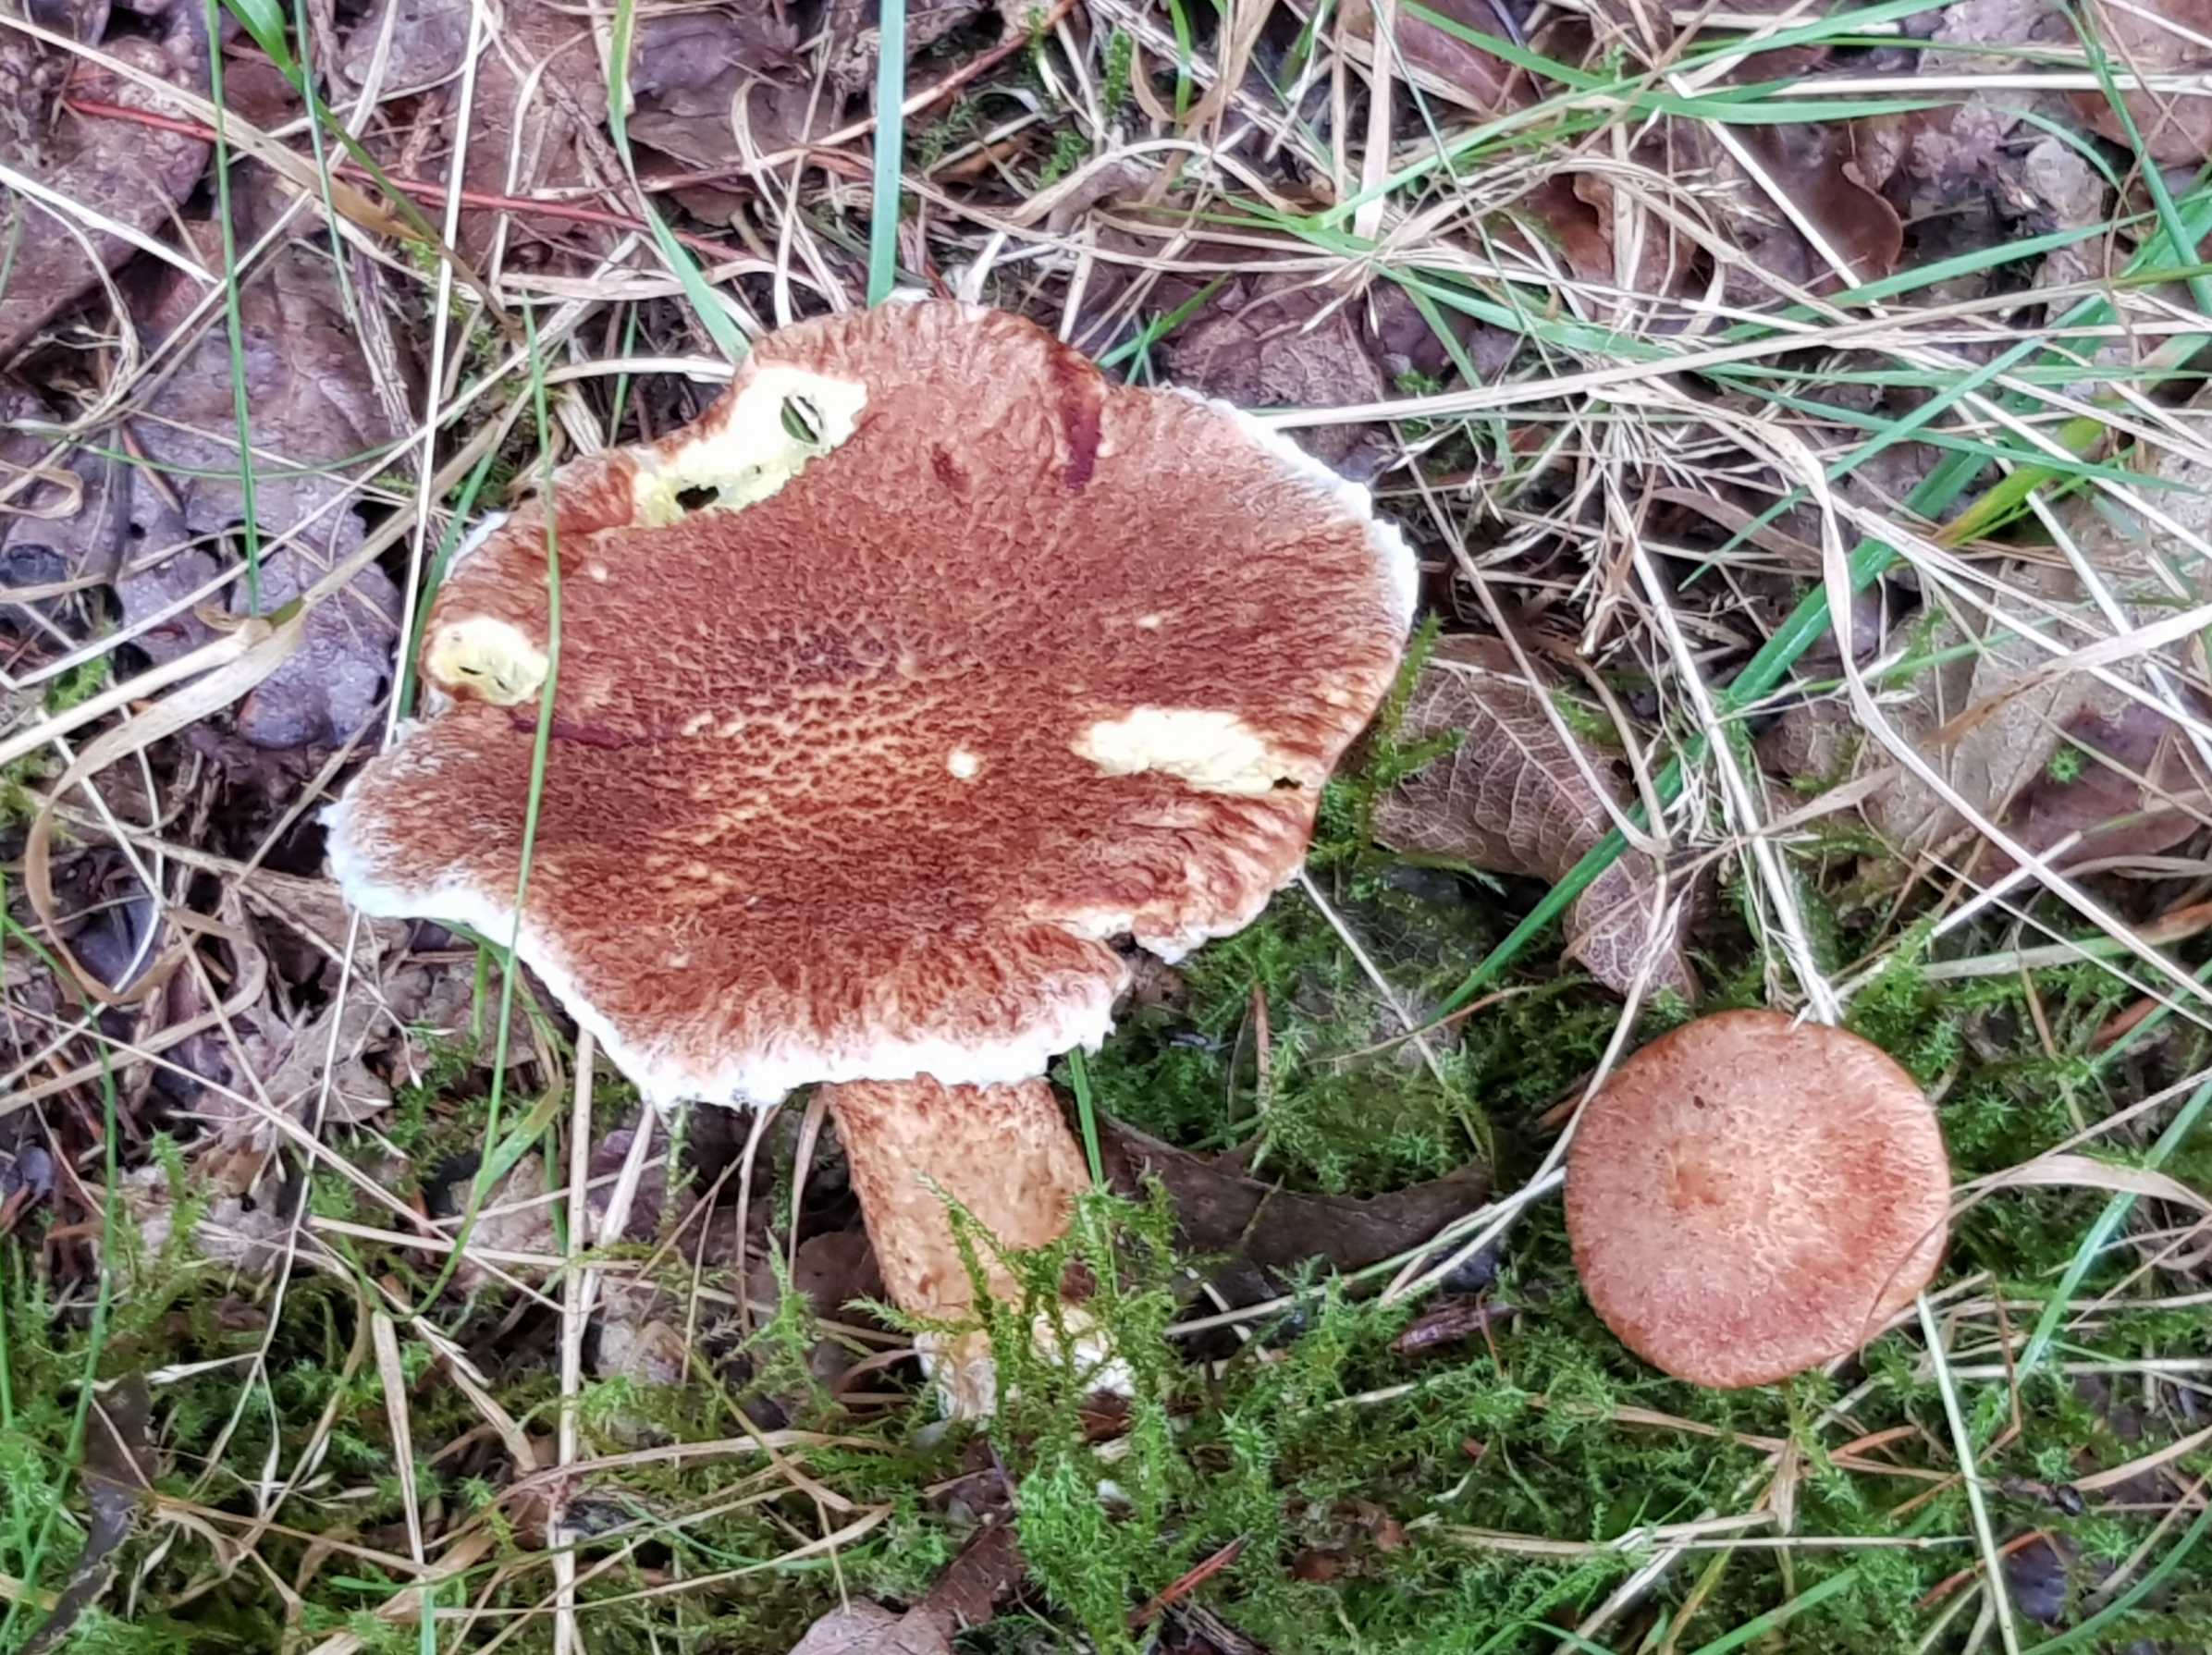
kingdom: Fungi
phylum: Basidiomycota
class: Agaricomycetes
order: Boletales
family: Suillaceae
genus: Suillus
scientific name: Suillus cavipes
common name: hulstokket slimrørhat
